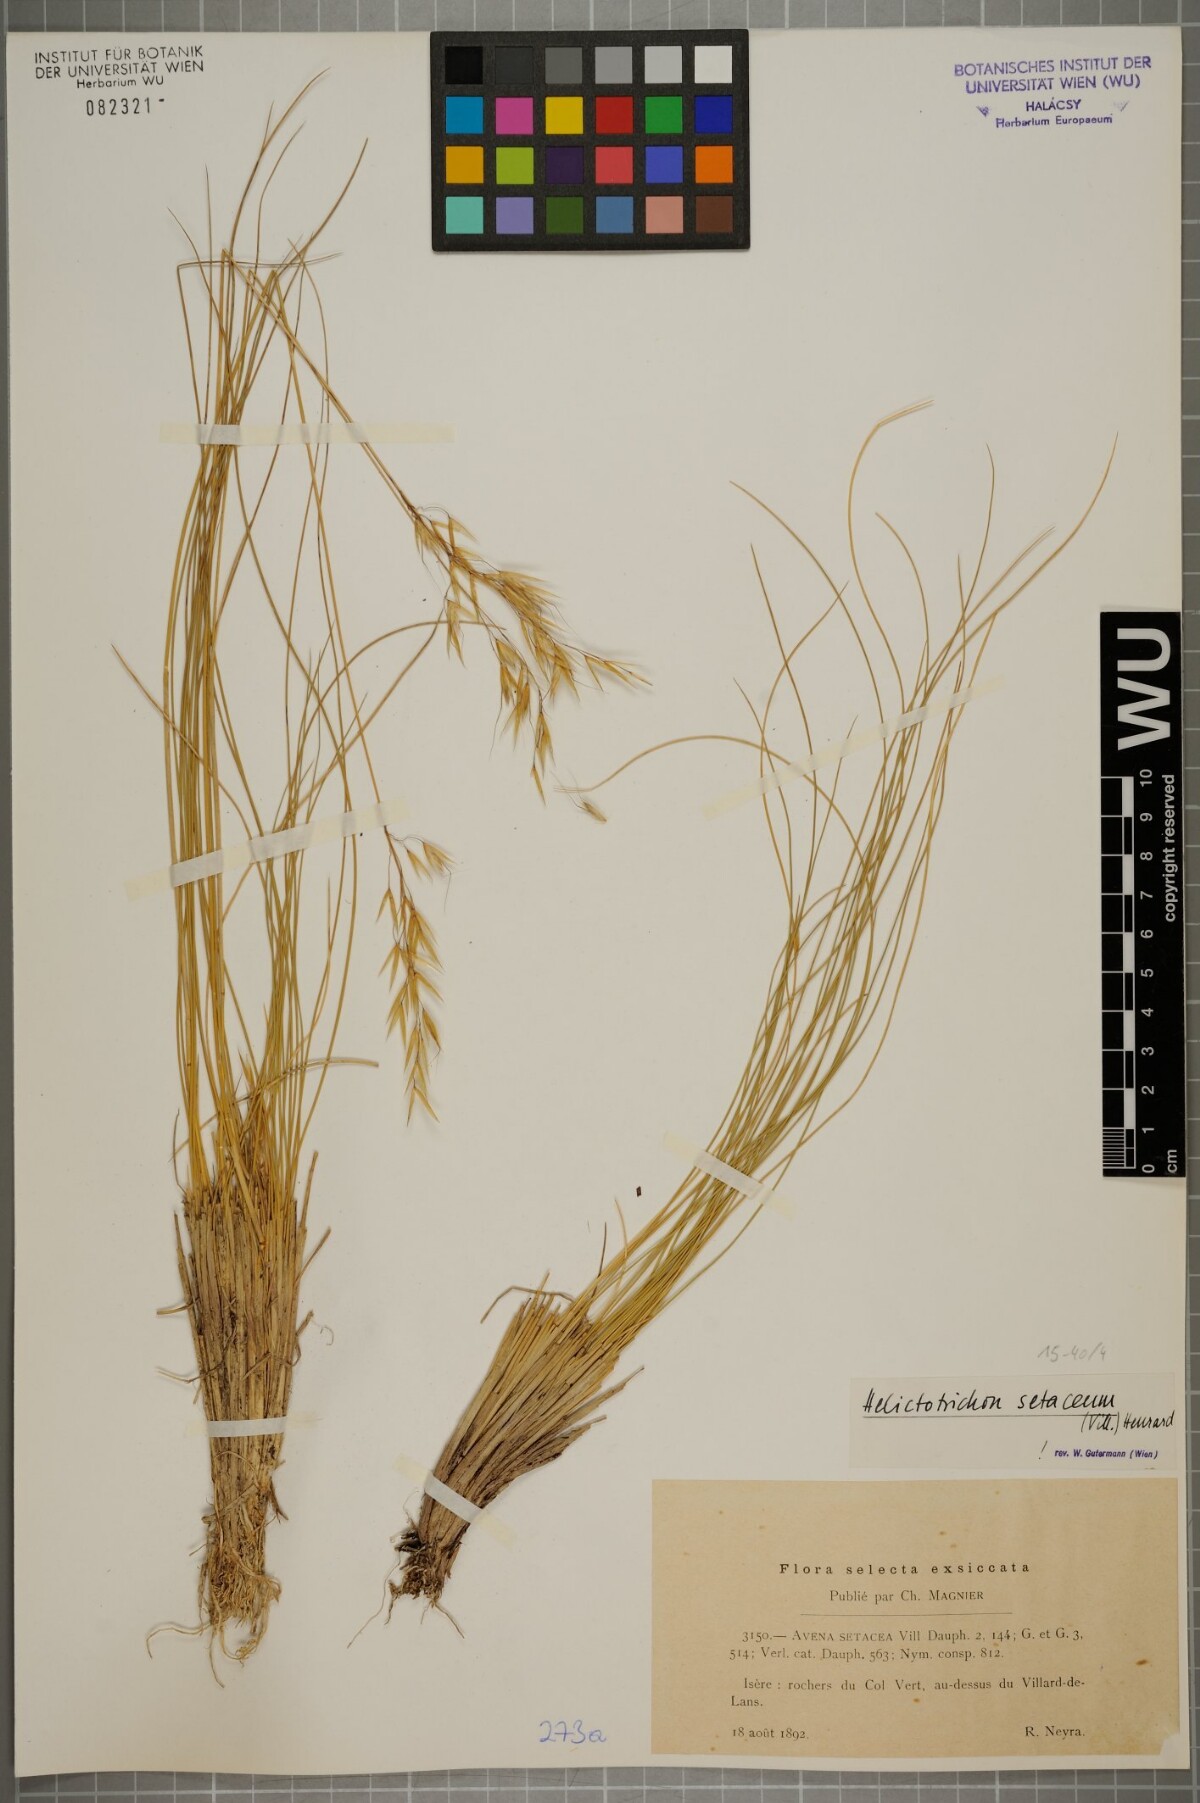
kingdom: Plantae
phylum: Tracheophyta
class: Liliopsida
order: Poales
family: Poaceae
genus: Helictotrichon
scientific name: Helictotrichon setaceum
